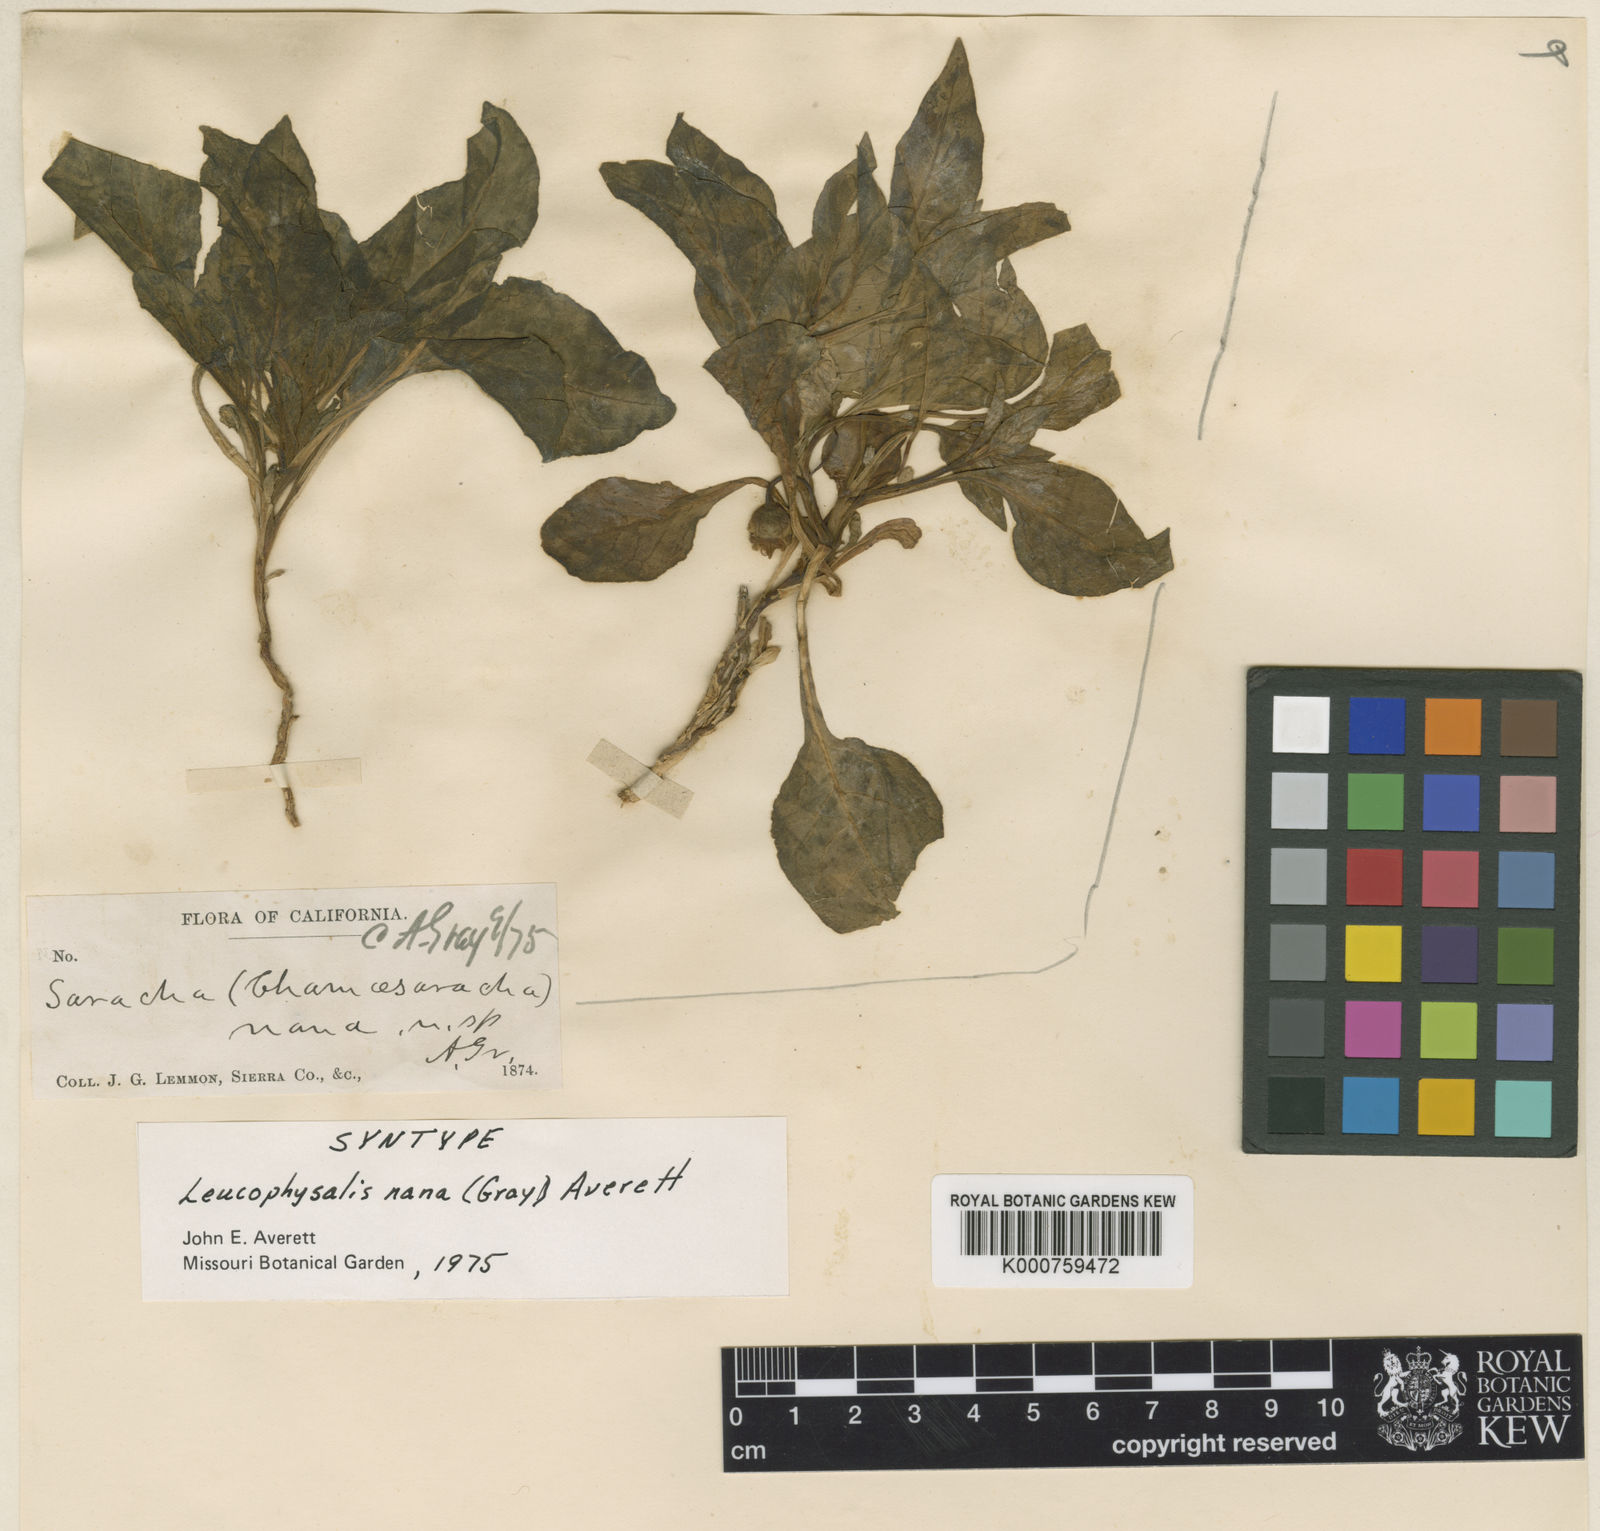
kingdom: Plantae
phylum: Tracheophyta
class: Magnoliopsida
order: Solanales
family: Solanaceae
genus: Leucophysalis
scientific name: Leucophysalis nana
